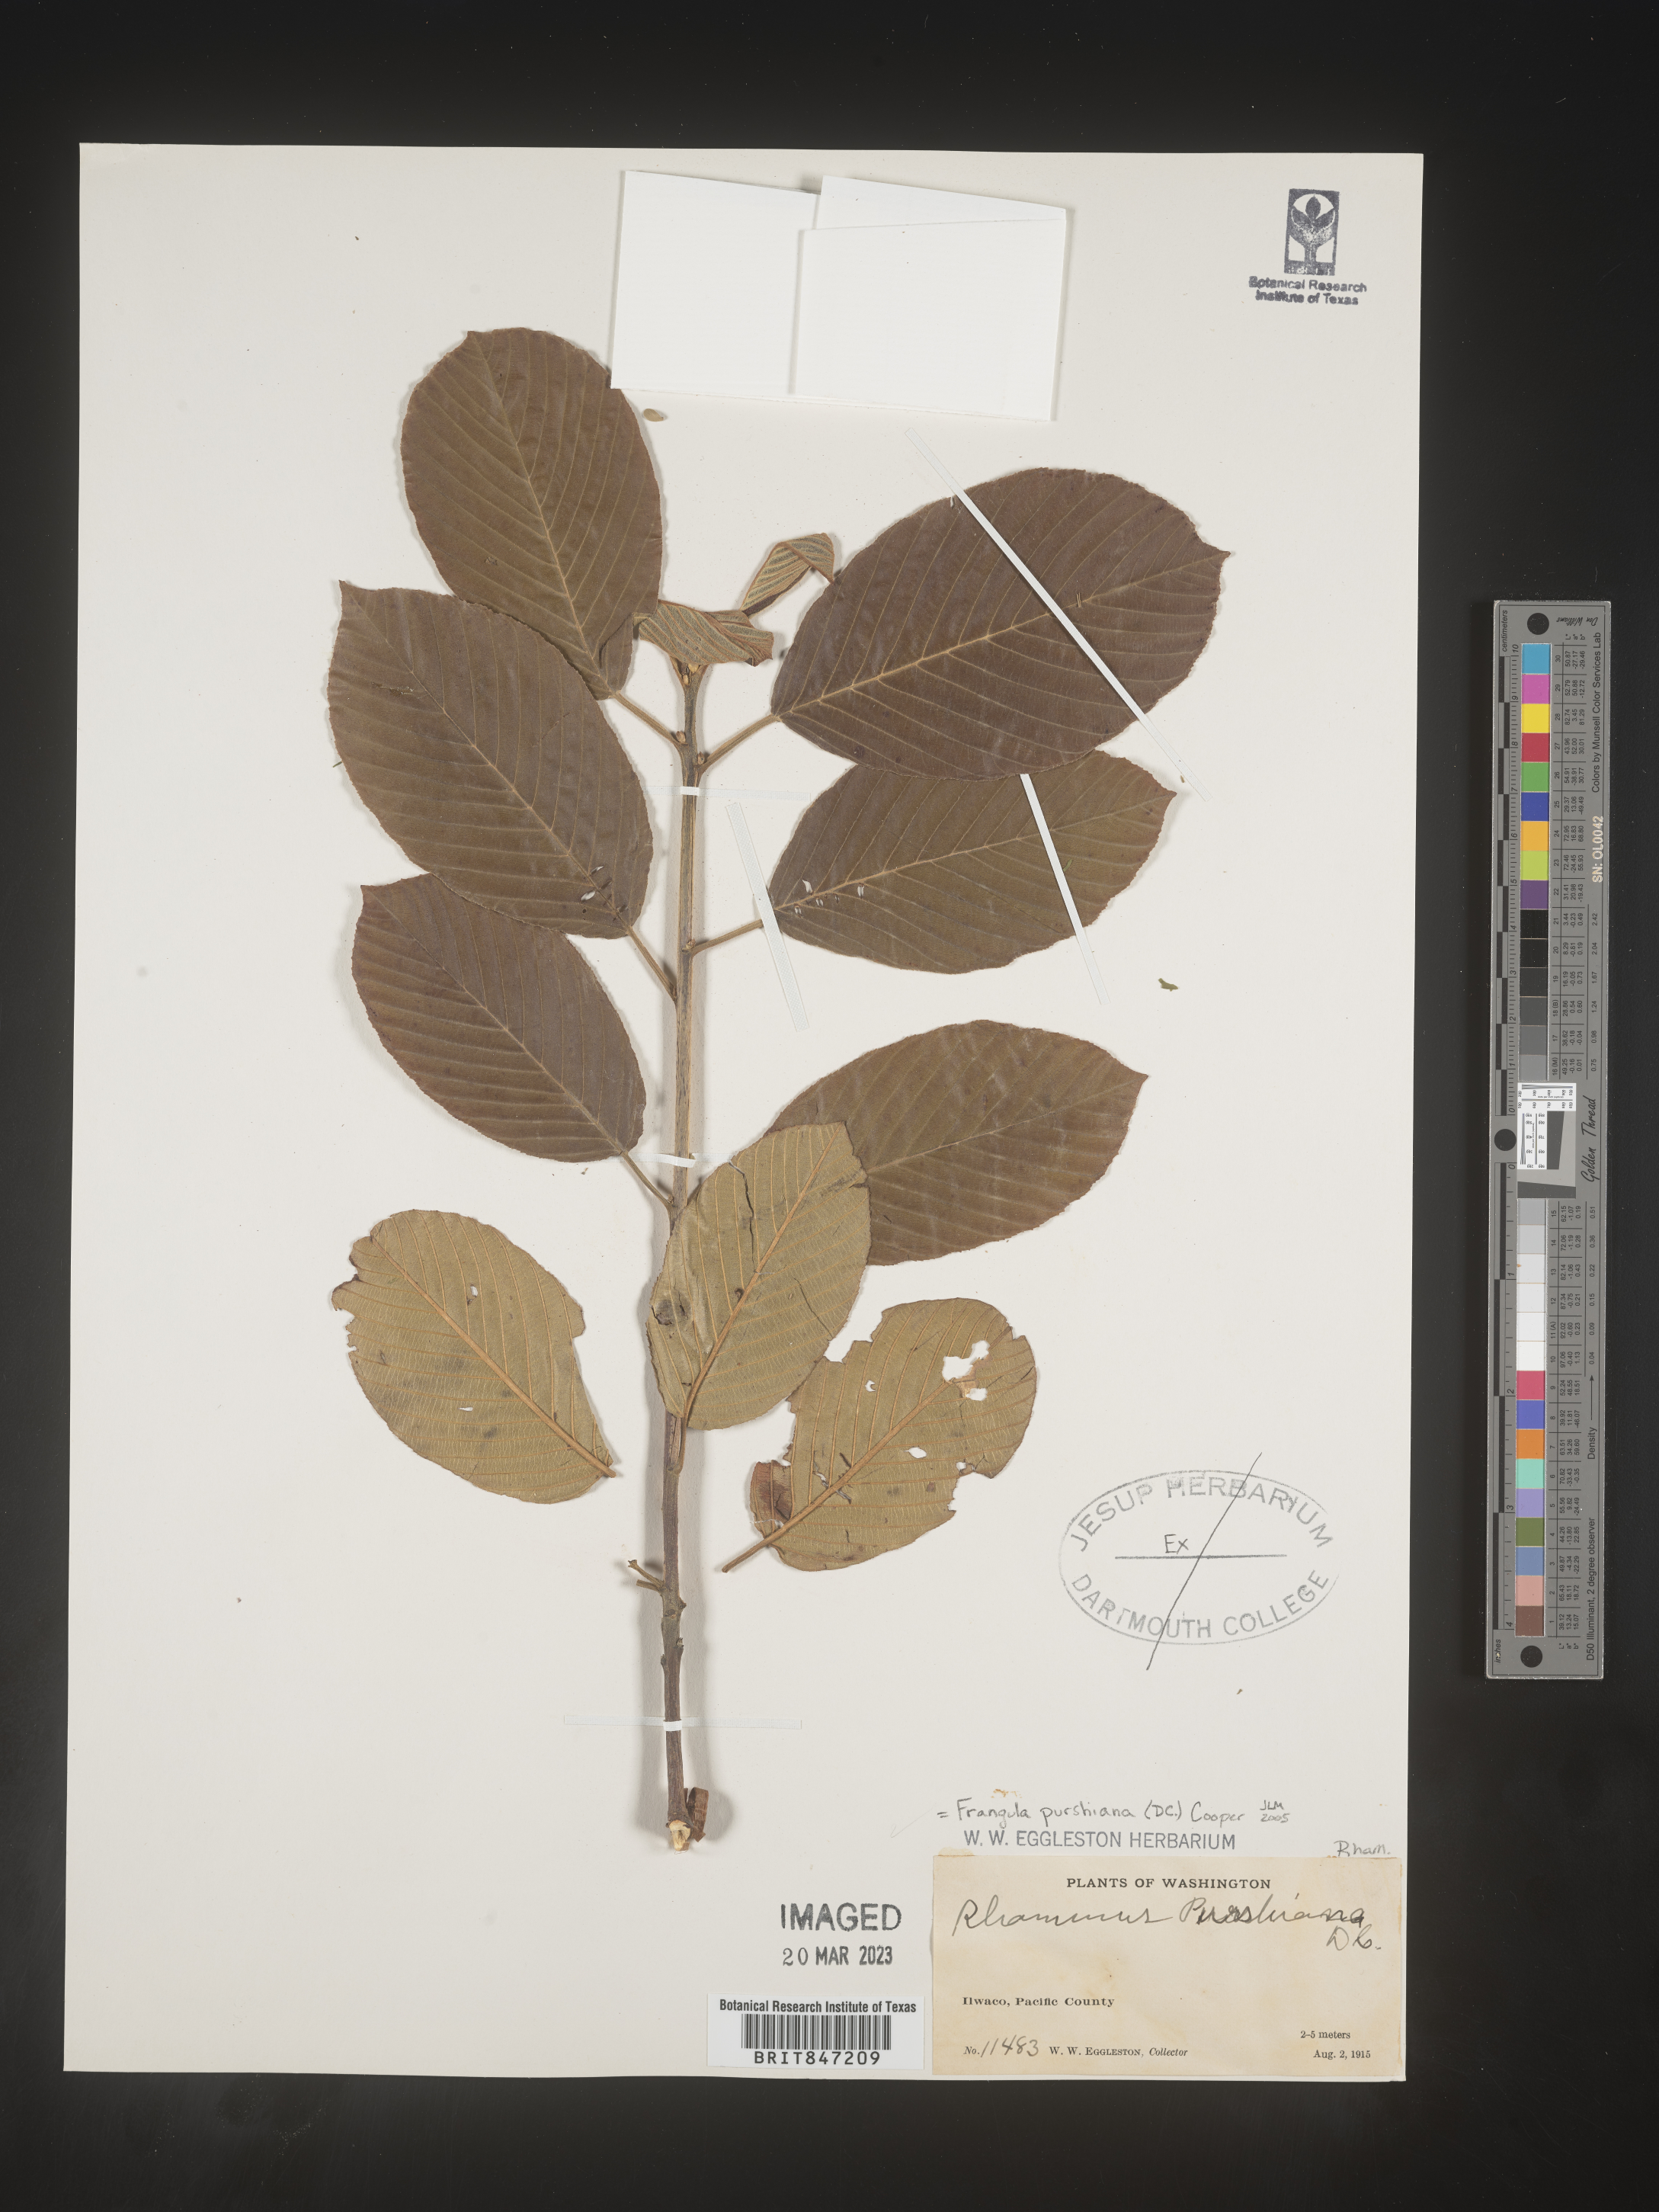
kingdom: Plantae
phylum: Tracheophyta
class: Magnoliopsida
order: Rosales
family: Rhamnaceae
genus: Frangula
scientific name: Frangula
